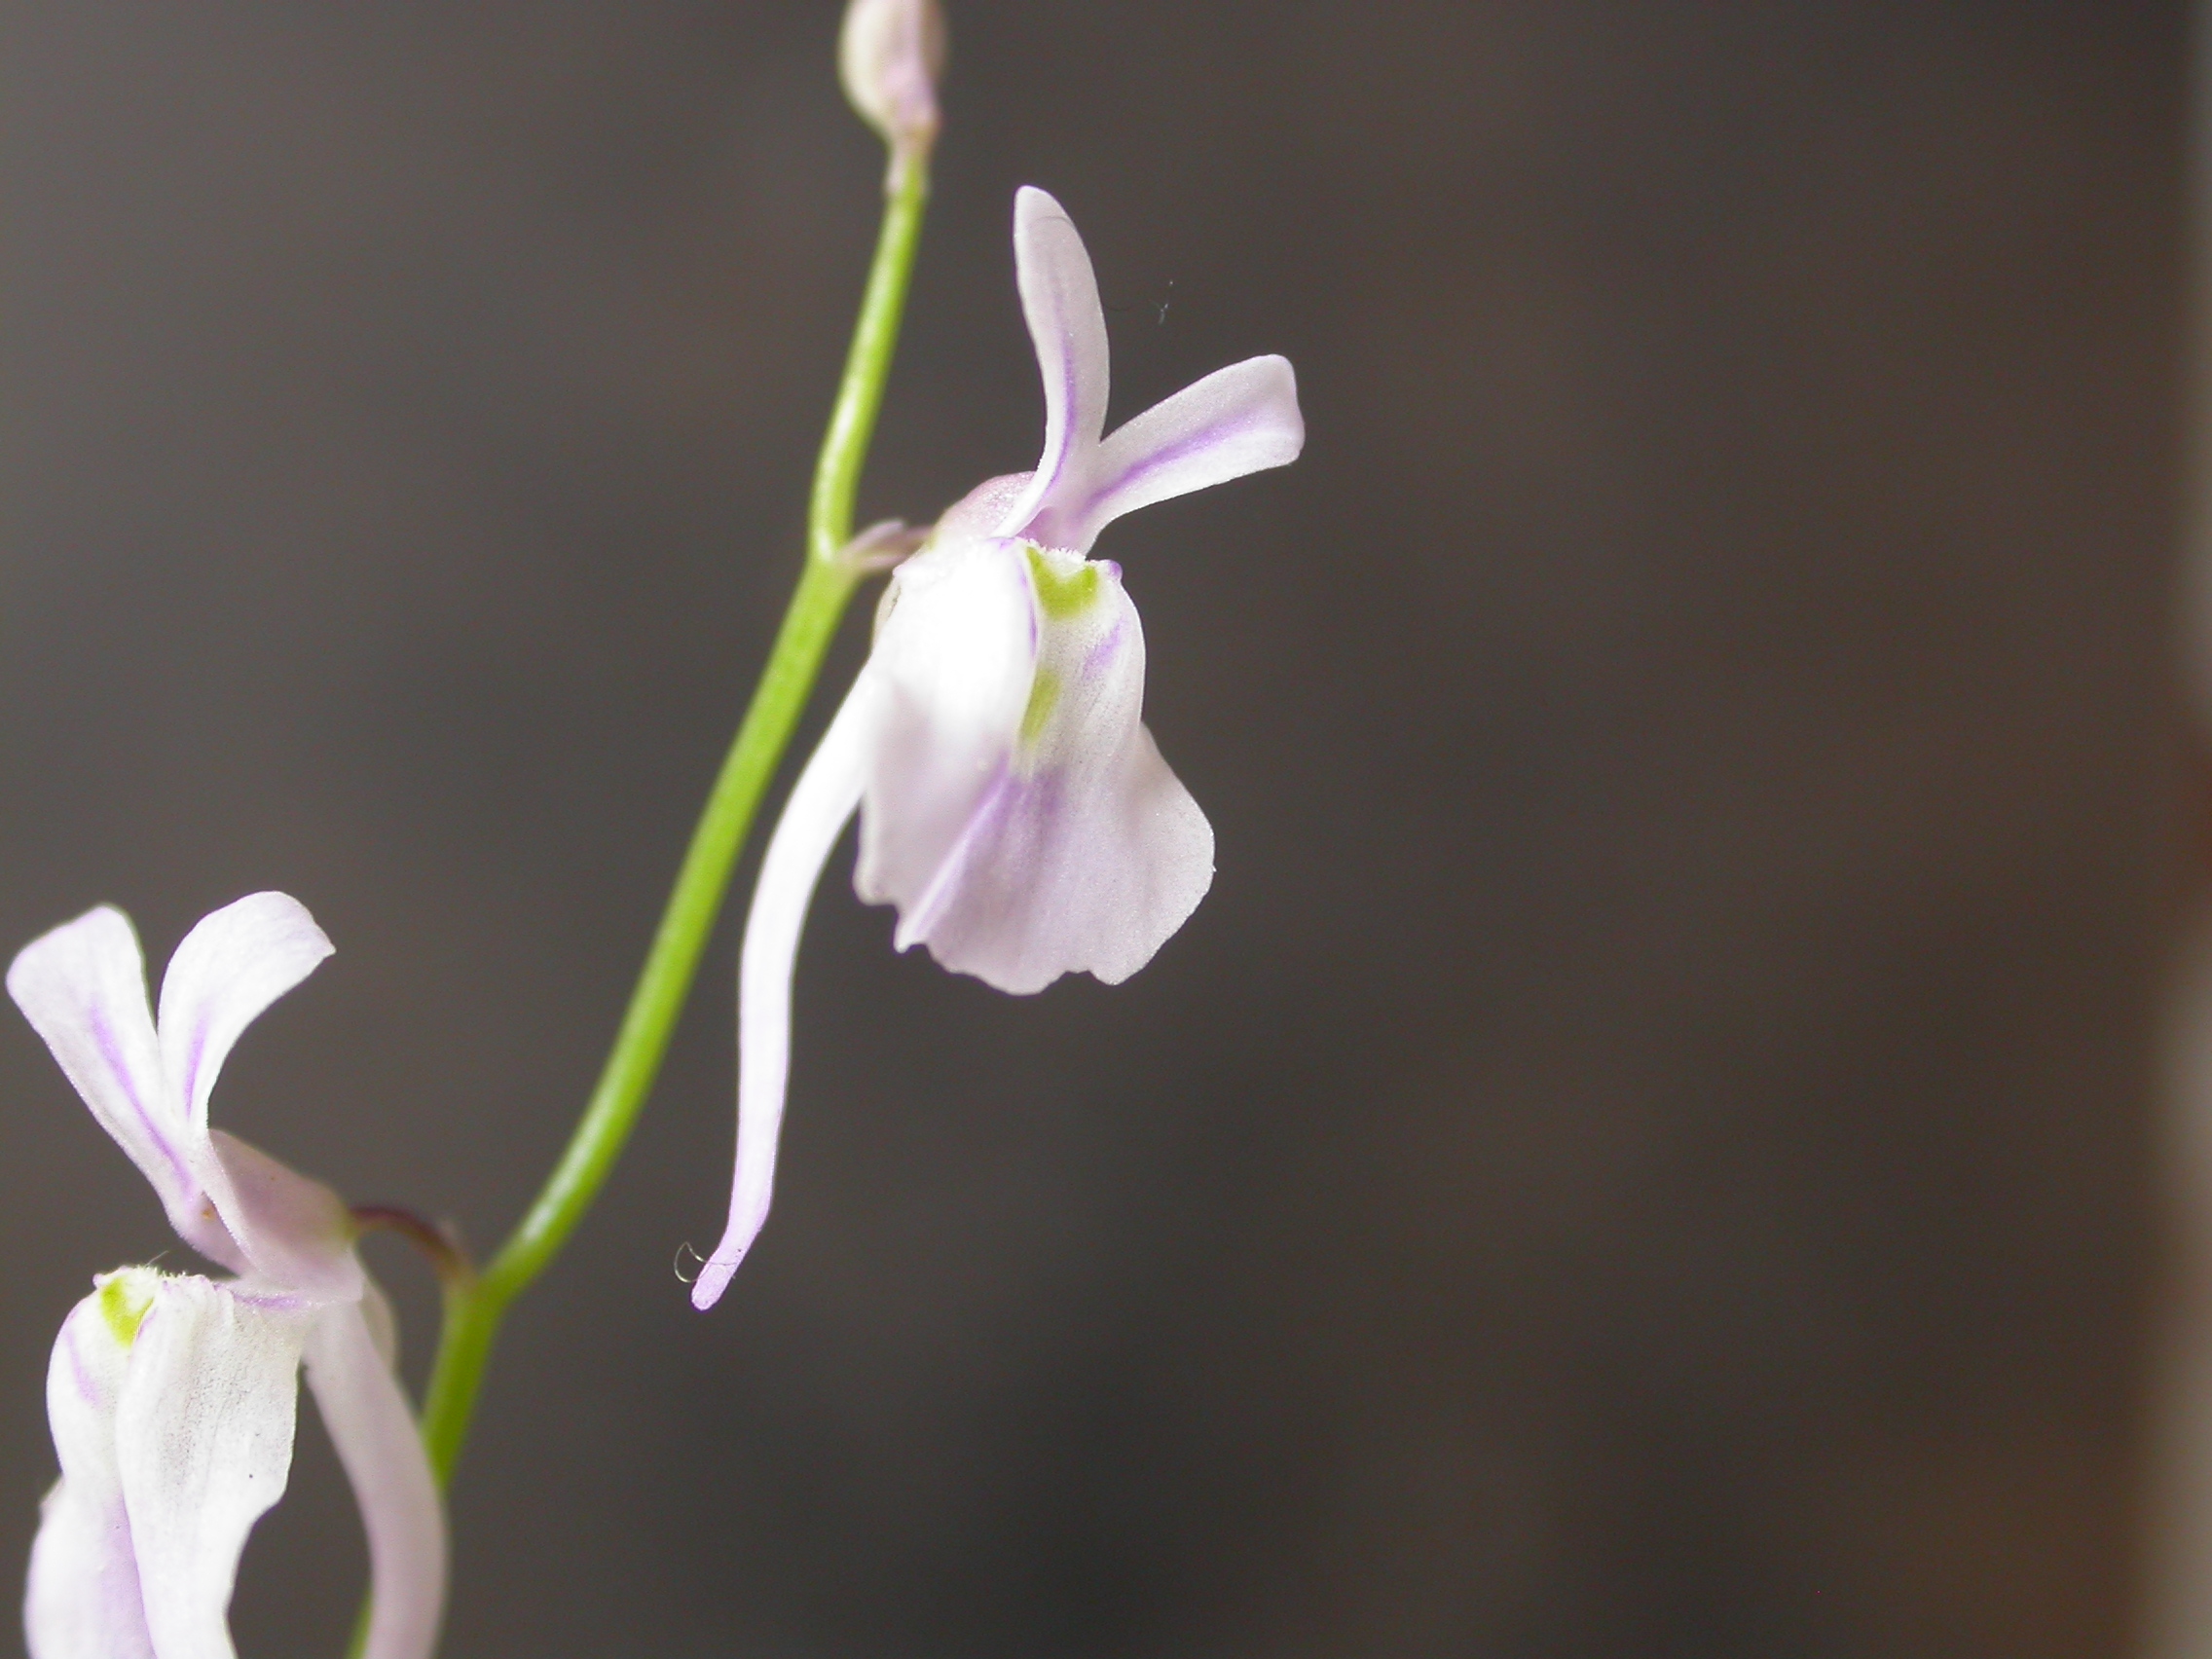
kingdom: Plantae
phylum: Tracheophyta
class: Magnoliopsida
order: Lamiales
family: Lentibulariaceae
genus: Utricularia
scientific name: Utricularia sandersonii
